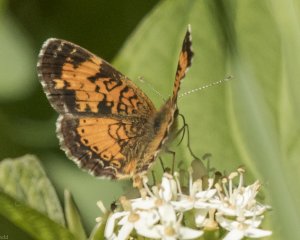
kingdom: Animalia
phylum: Arthropoda
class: Insecta
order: Lepidoptera
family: Nymphalidae
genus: Phyciodes
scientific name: Phyciodes tharos
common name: Northern Crescent
